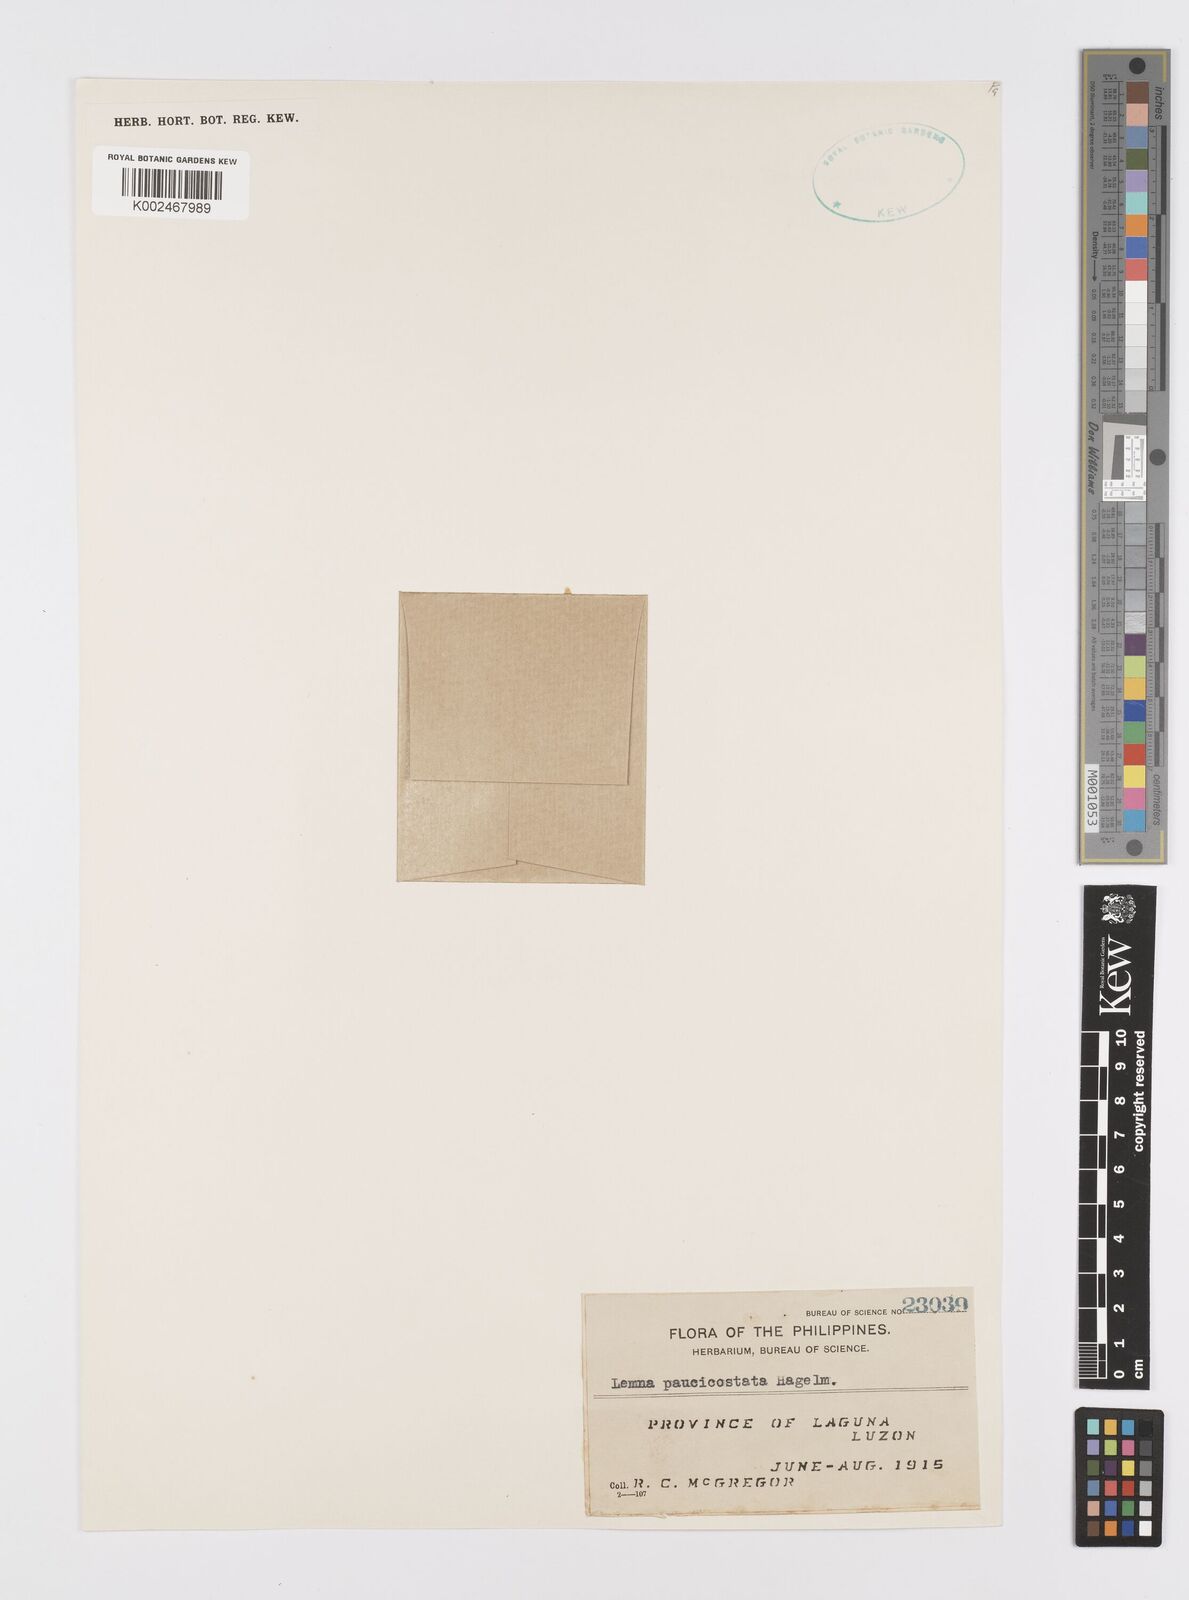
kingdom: Plantae
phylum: Tracheophyta
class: Liliopsida
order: Alismatales
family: Araceae
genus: Lemna
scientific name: Lemna aequinoctialis
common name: Duckweed
